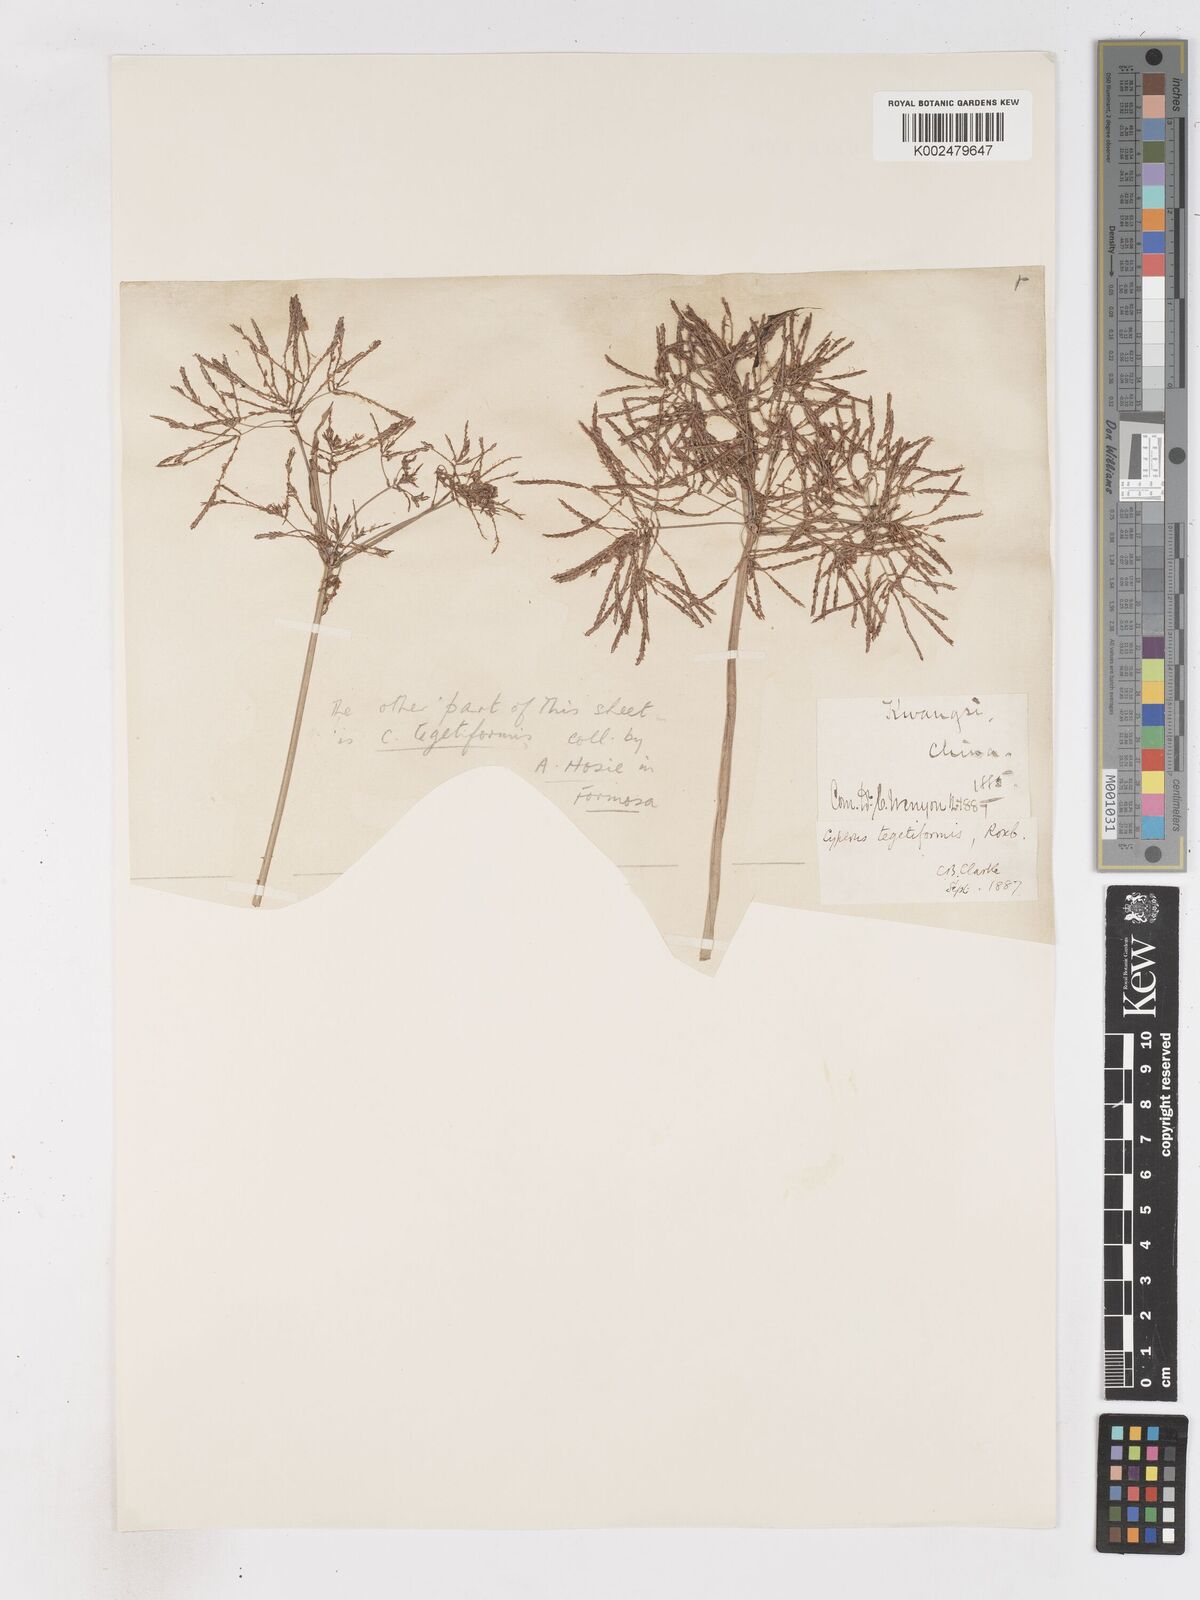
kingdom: Plantae
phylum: Tracheophyta
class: Liliopsida
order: Poales
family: Cyperaceae
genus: Cyperus
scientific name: Cyperus corymbosus
